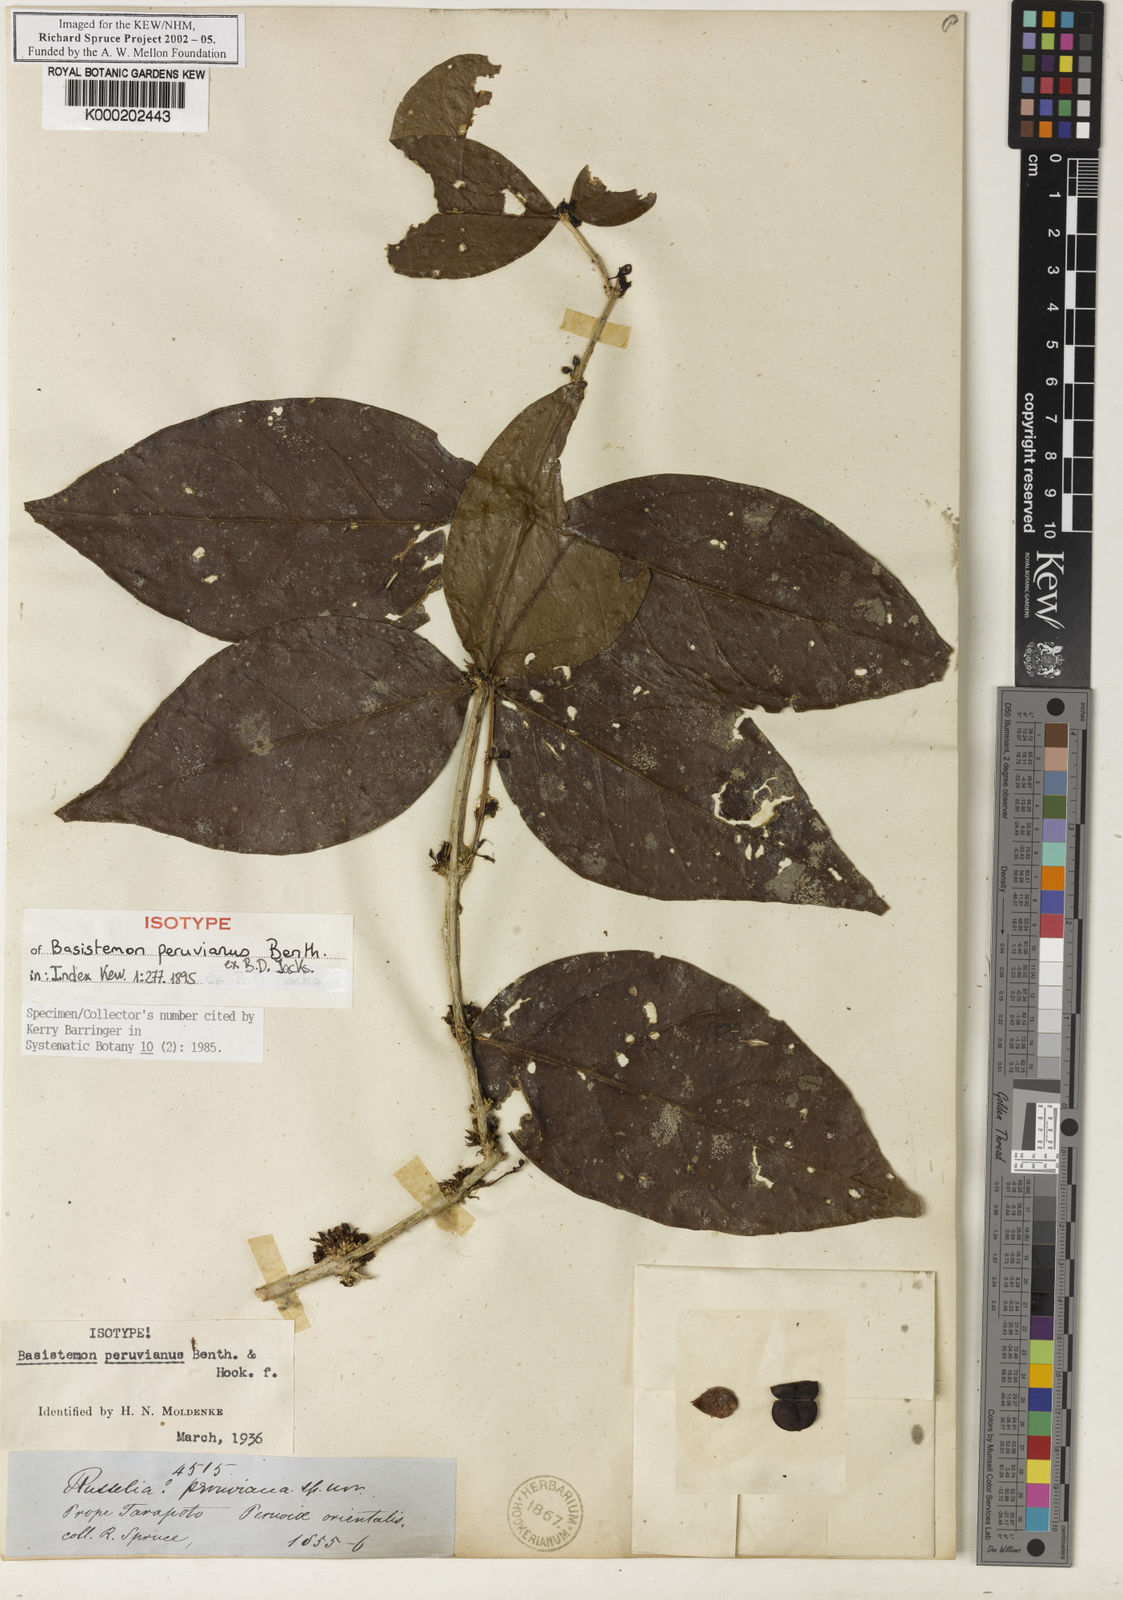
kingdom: Plantae
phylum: Tracheophyta
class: Magnoliopsida
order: Lamiales
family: Plantaginaceae
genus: Basistemon
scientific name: Basistemon
